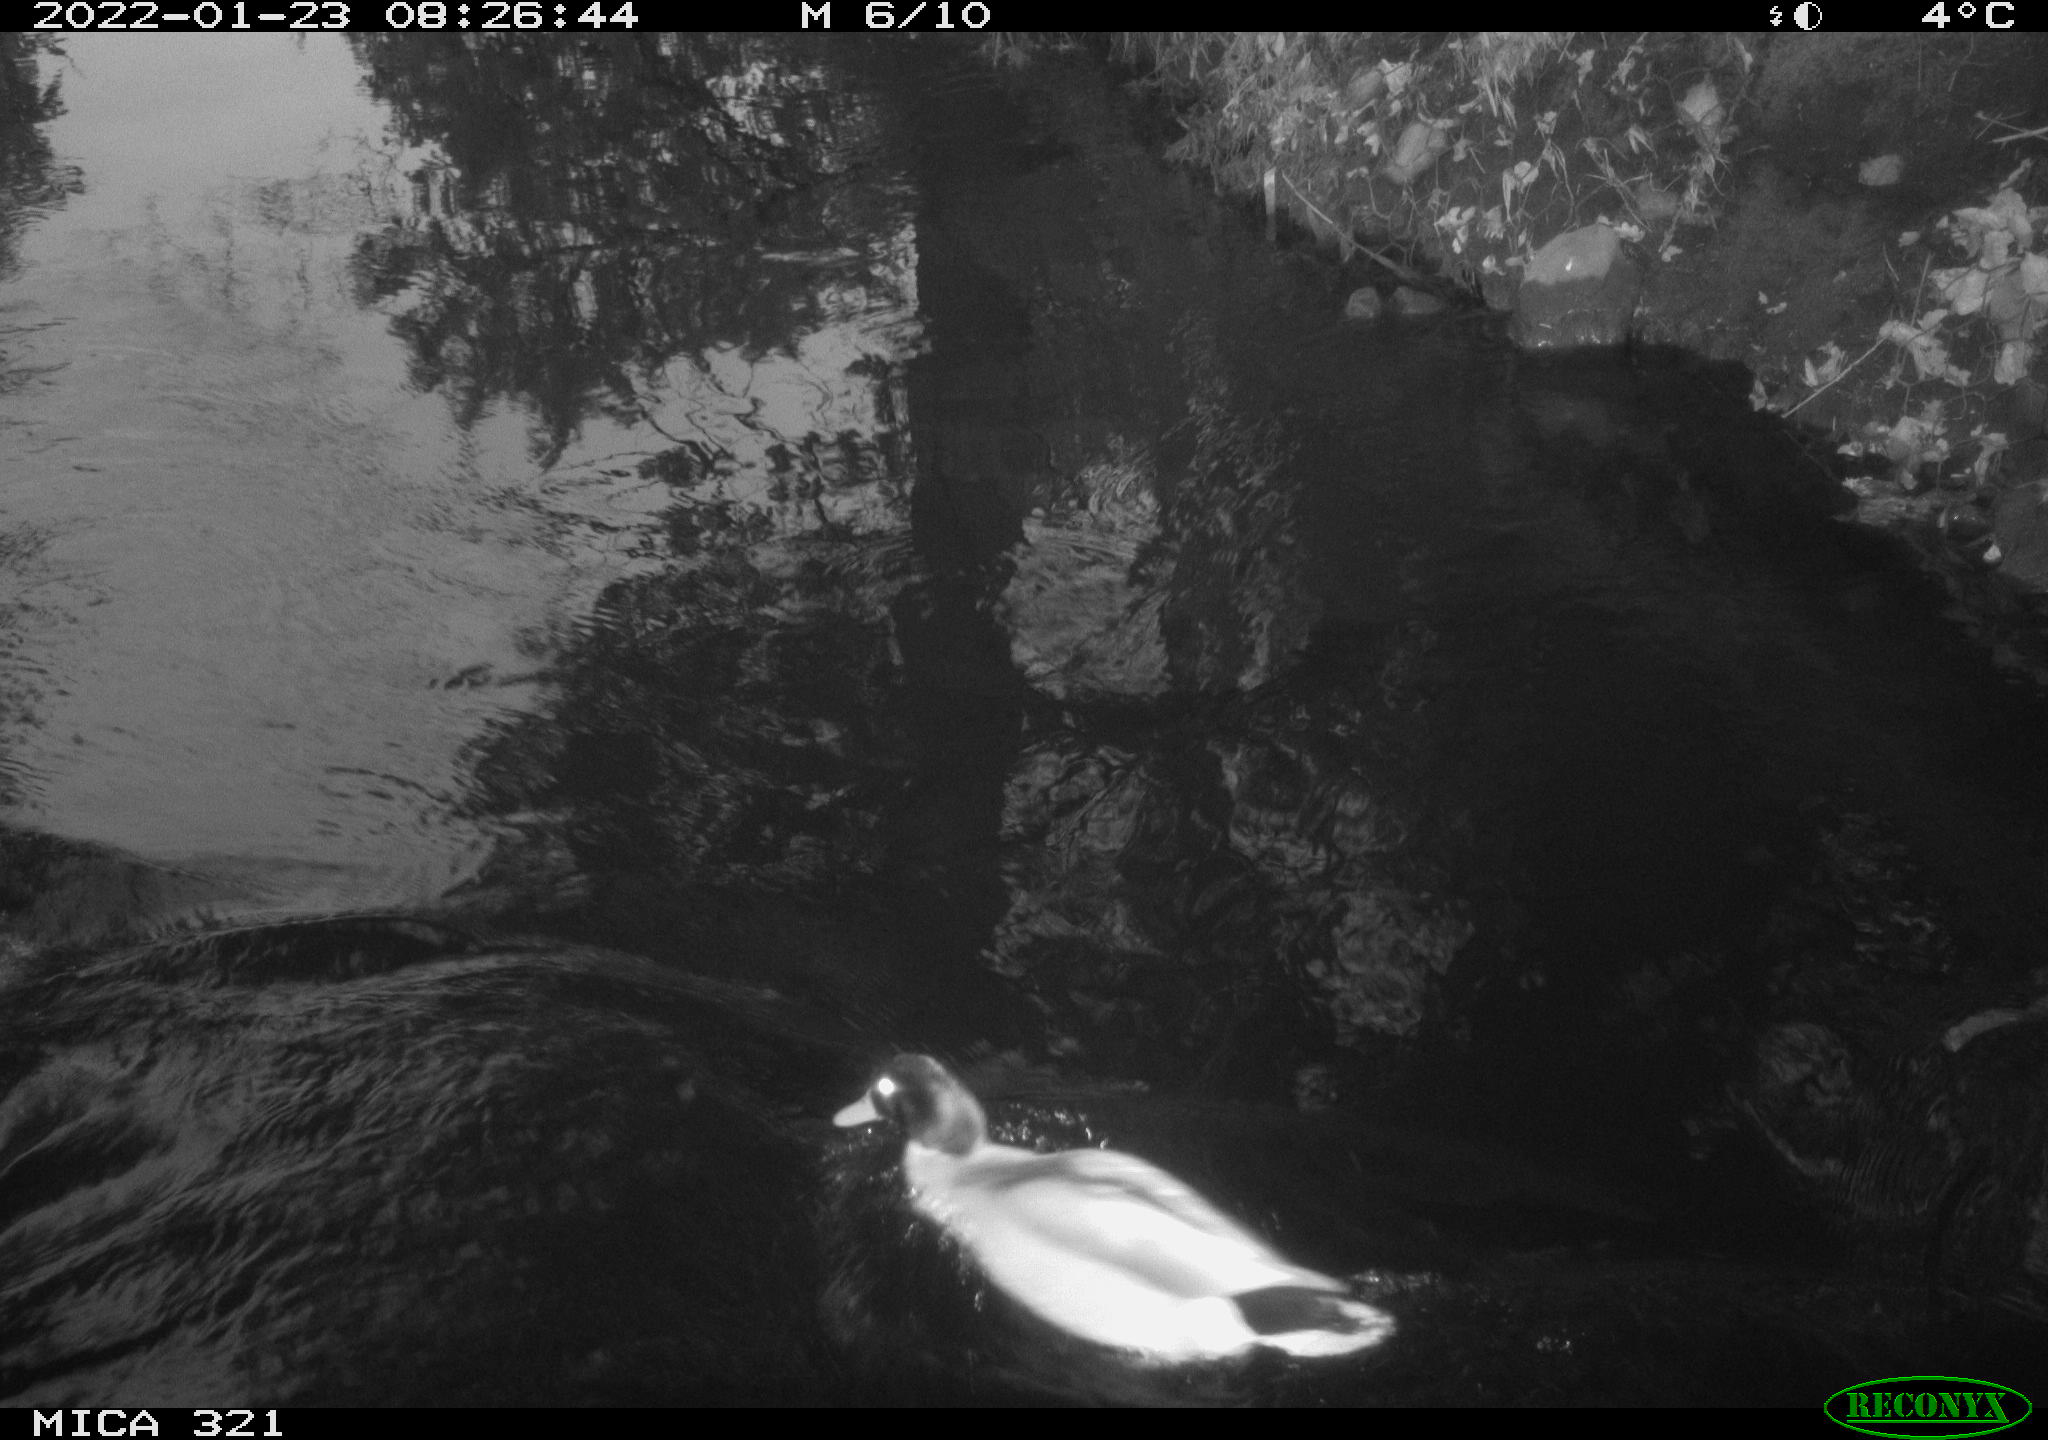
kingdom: Animalia
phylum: Chordata
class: Aves
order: Anseriformes
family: Anatidae
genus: Anas
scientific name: Anas
